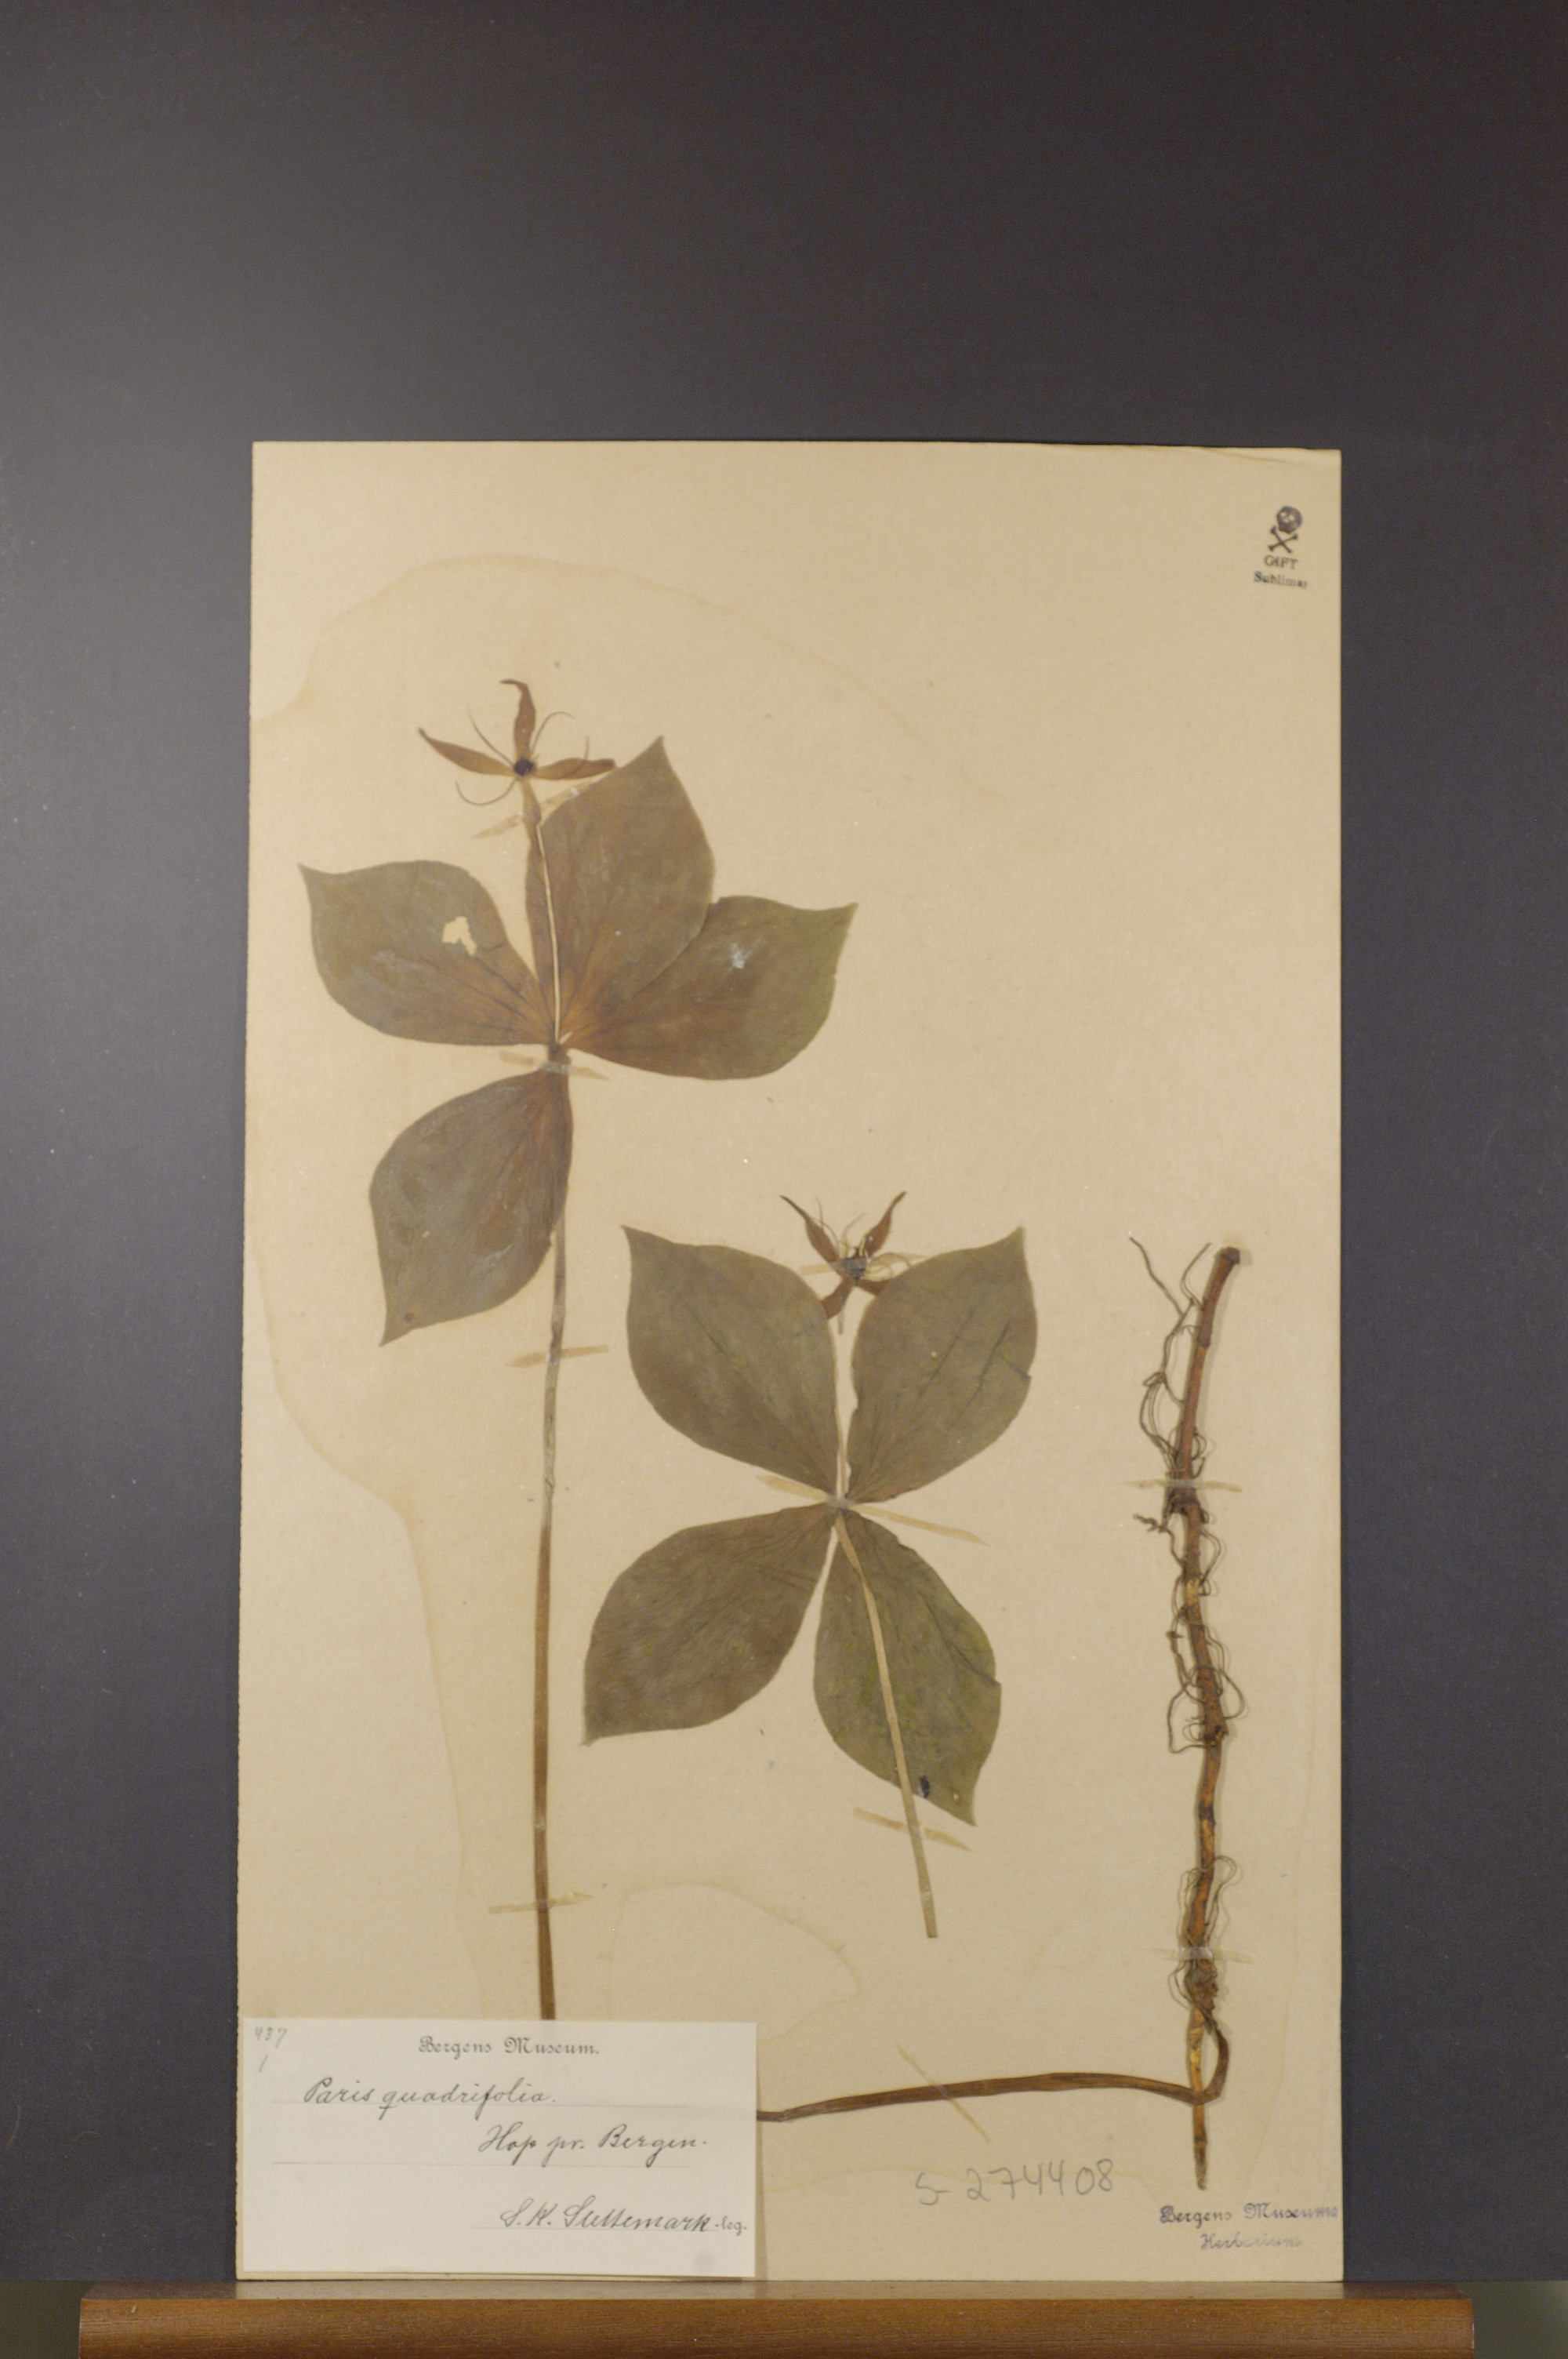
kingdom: Plantae
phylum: Tracheophyta
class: Liliopsida
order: Liliales
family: Melanthiaceae
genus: Paris
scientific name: Paris quadrifolia
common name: Herb-paris
